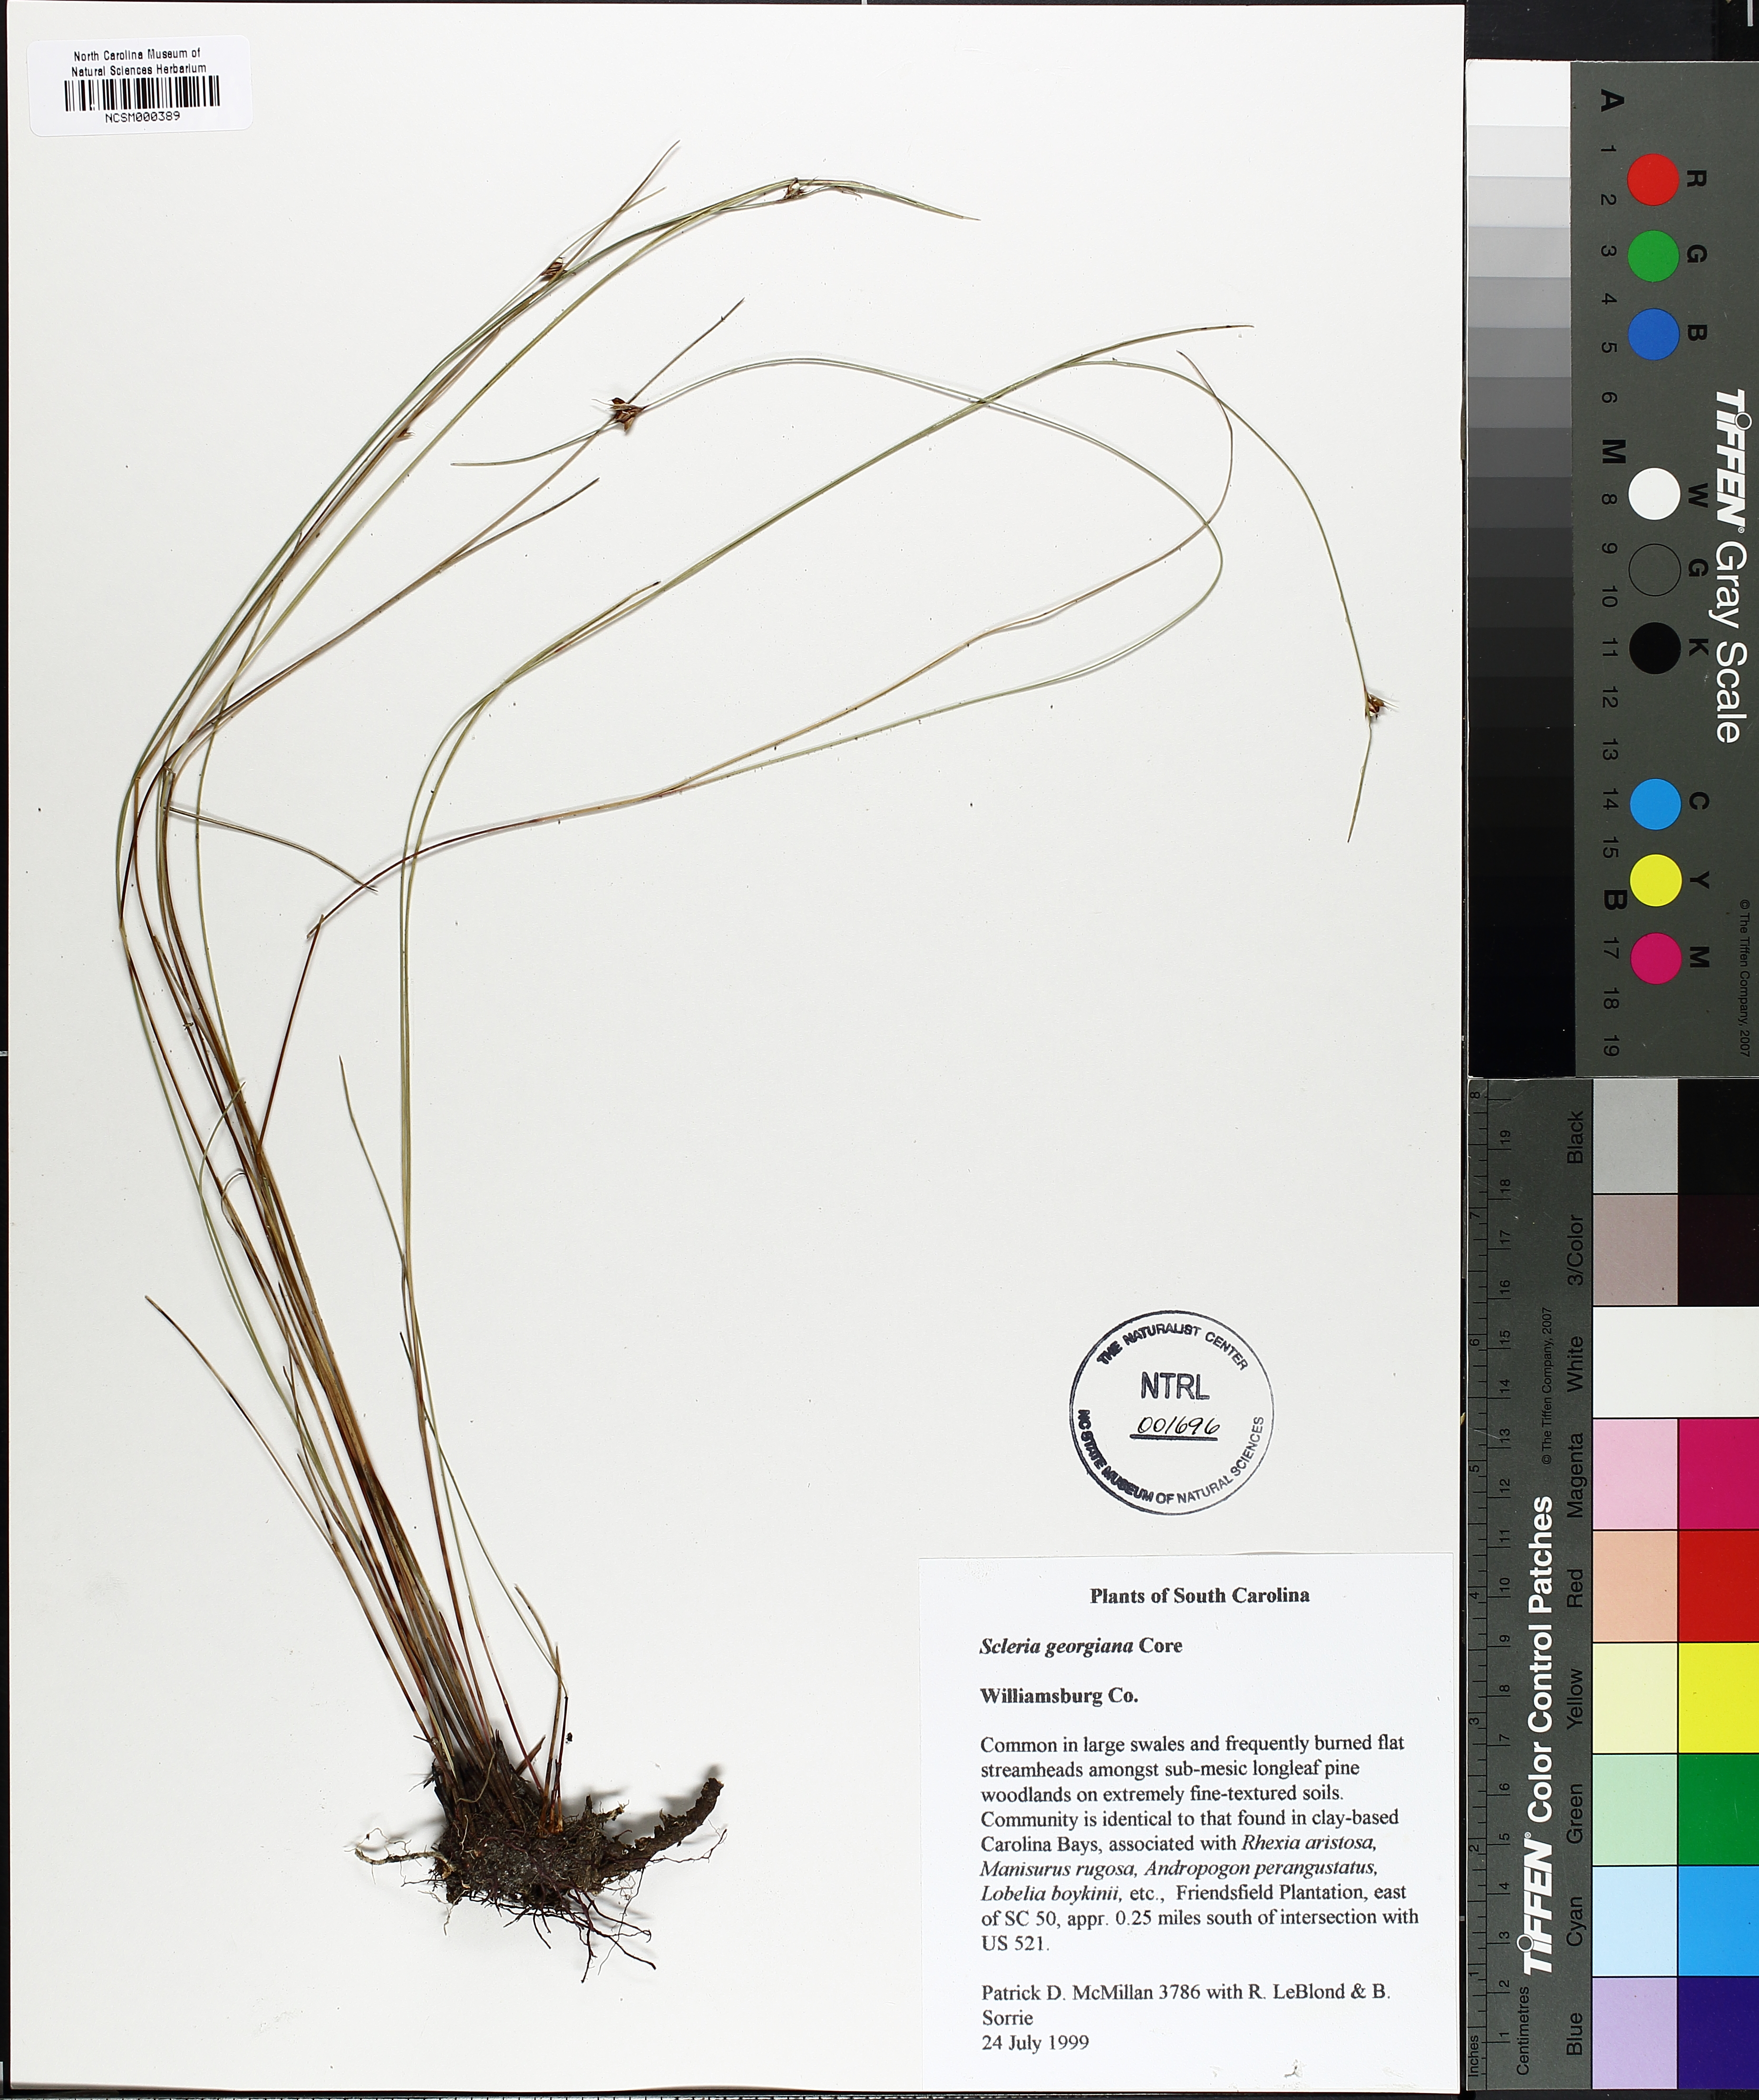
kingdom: Plantae
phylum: Tracheophyta
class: Liliopsida
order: Poales
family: Cyperaceae
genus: Scleria
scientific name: Scleria georgiana
